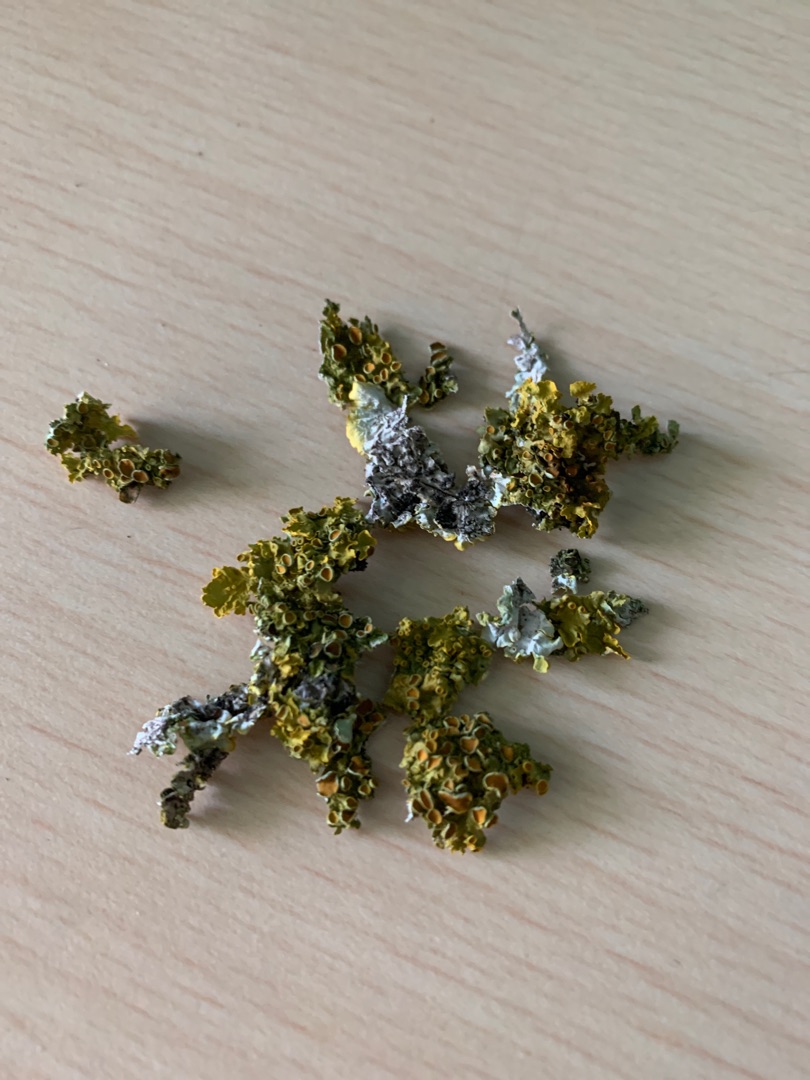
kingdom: Fungi
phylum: Ascomycota
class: Lecanoromycetes
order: Teloschistales
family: Teloschistaceae
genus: Xanthoria
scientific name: Xanthoria parietina
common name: Almindelig væggelav
